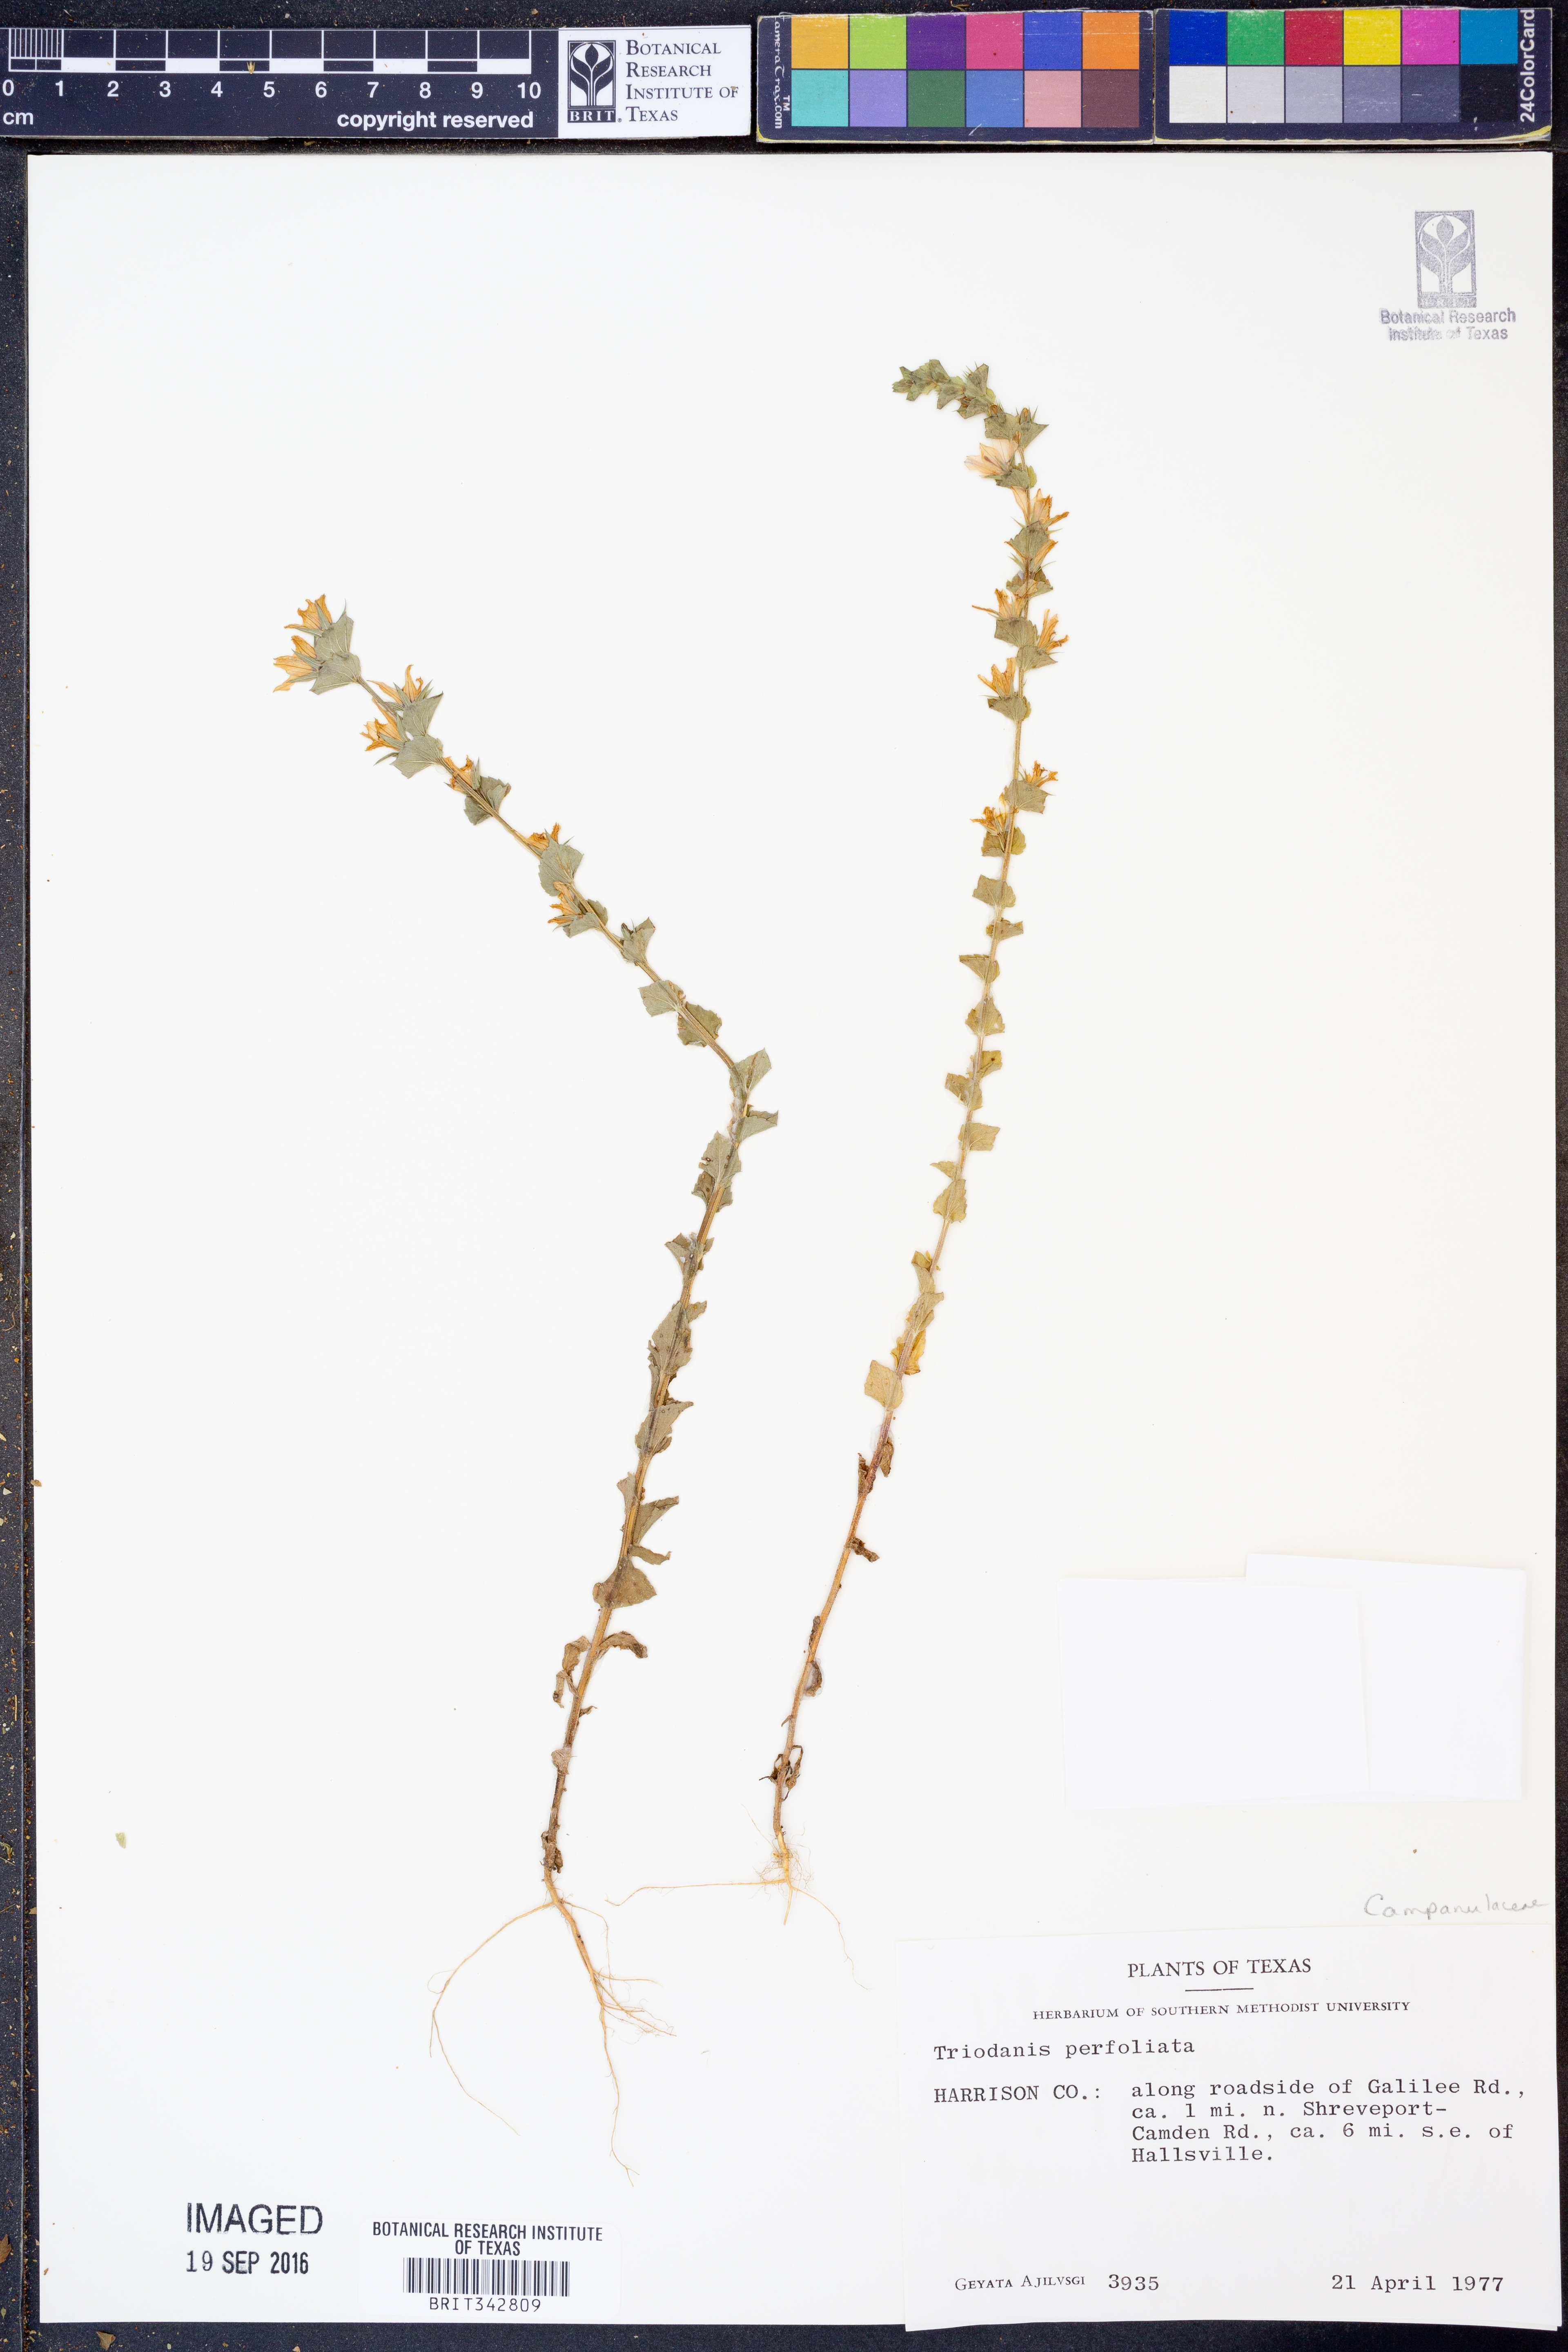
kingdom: Plantae
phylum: Tracheophyta
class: Magnoliopsida
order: Asterales
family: Campanulaceae
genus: Triodanis
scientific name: Triodanis perfoliata
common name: Clasping venus' looking-glass
